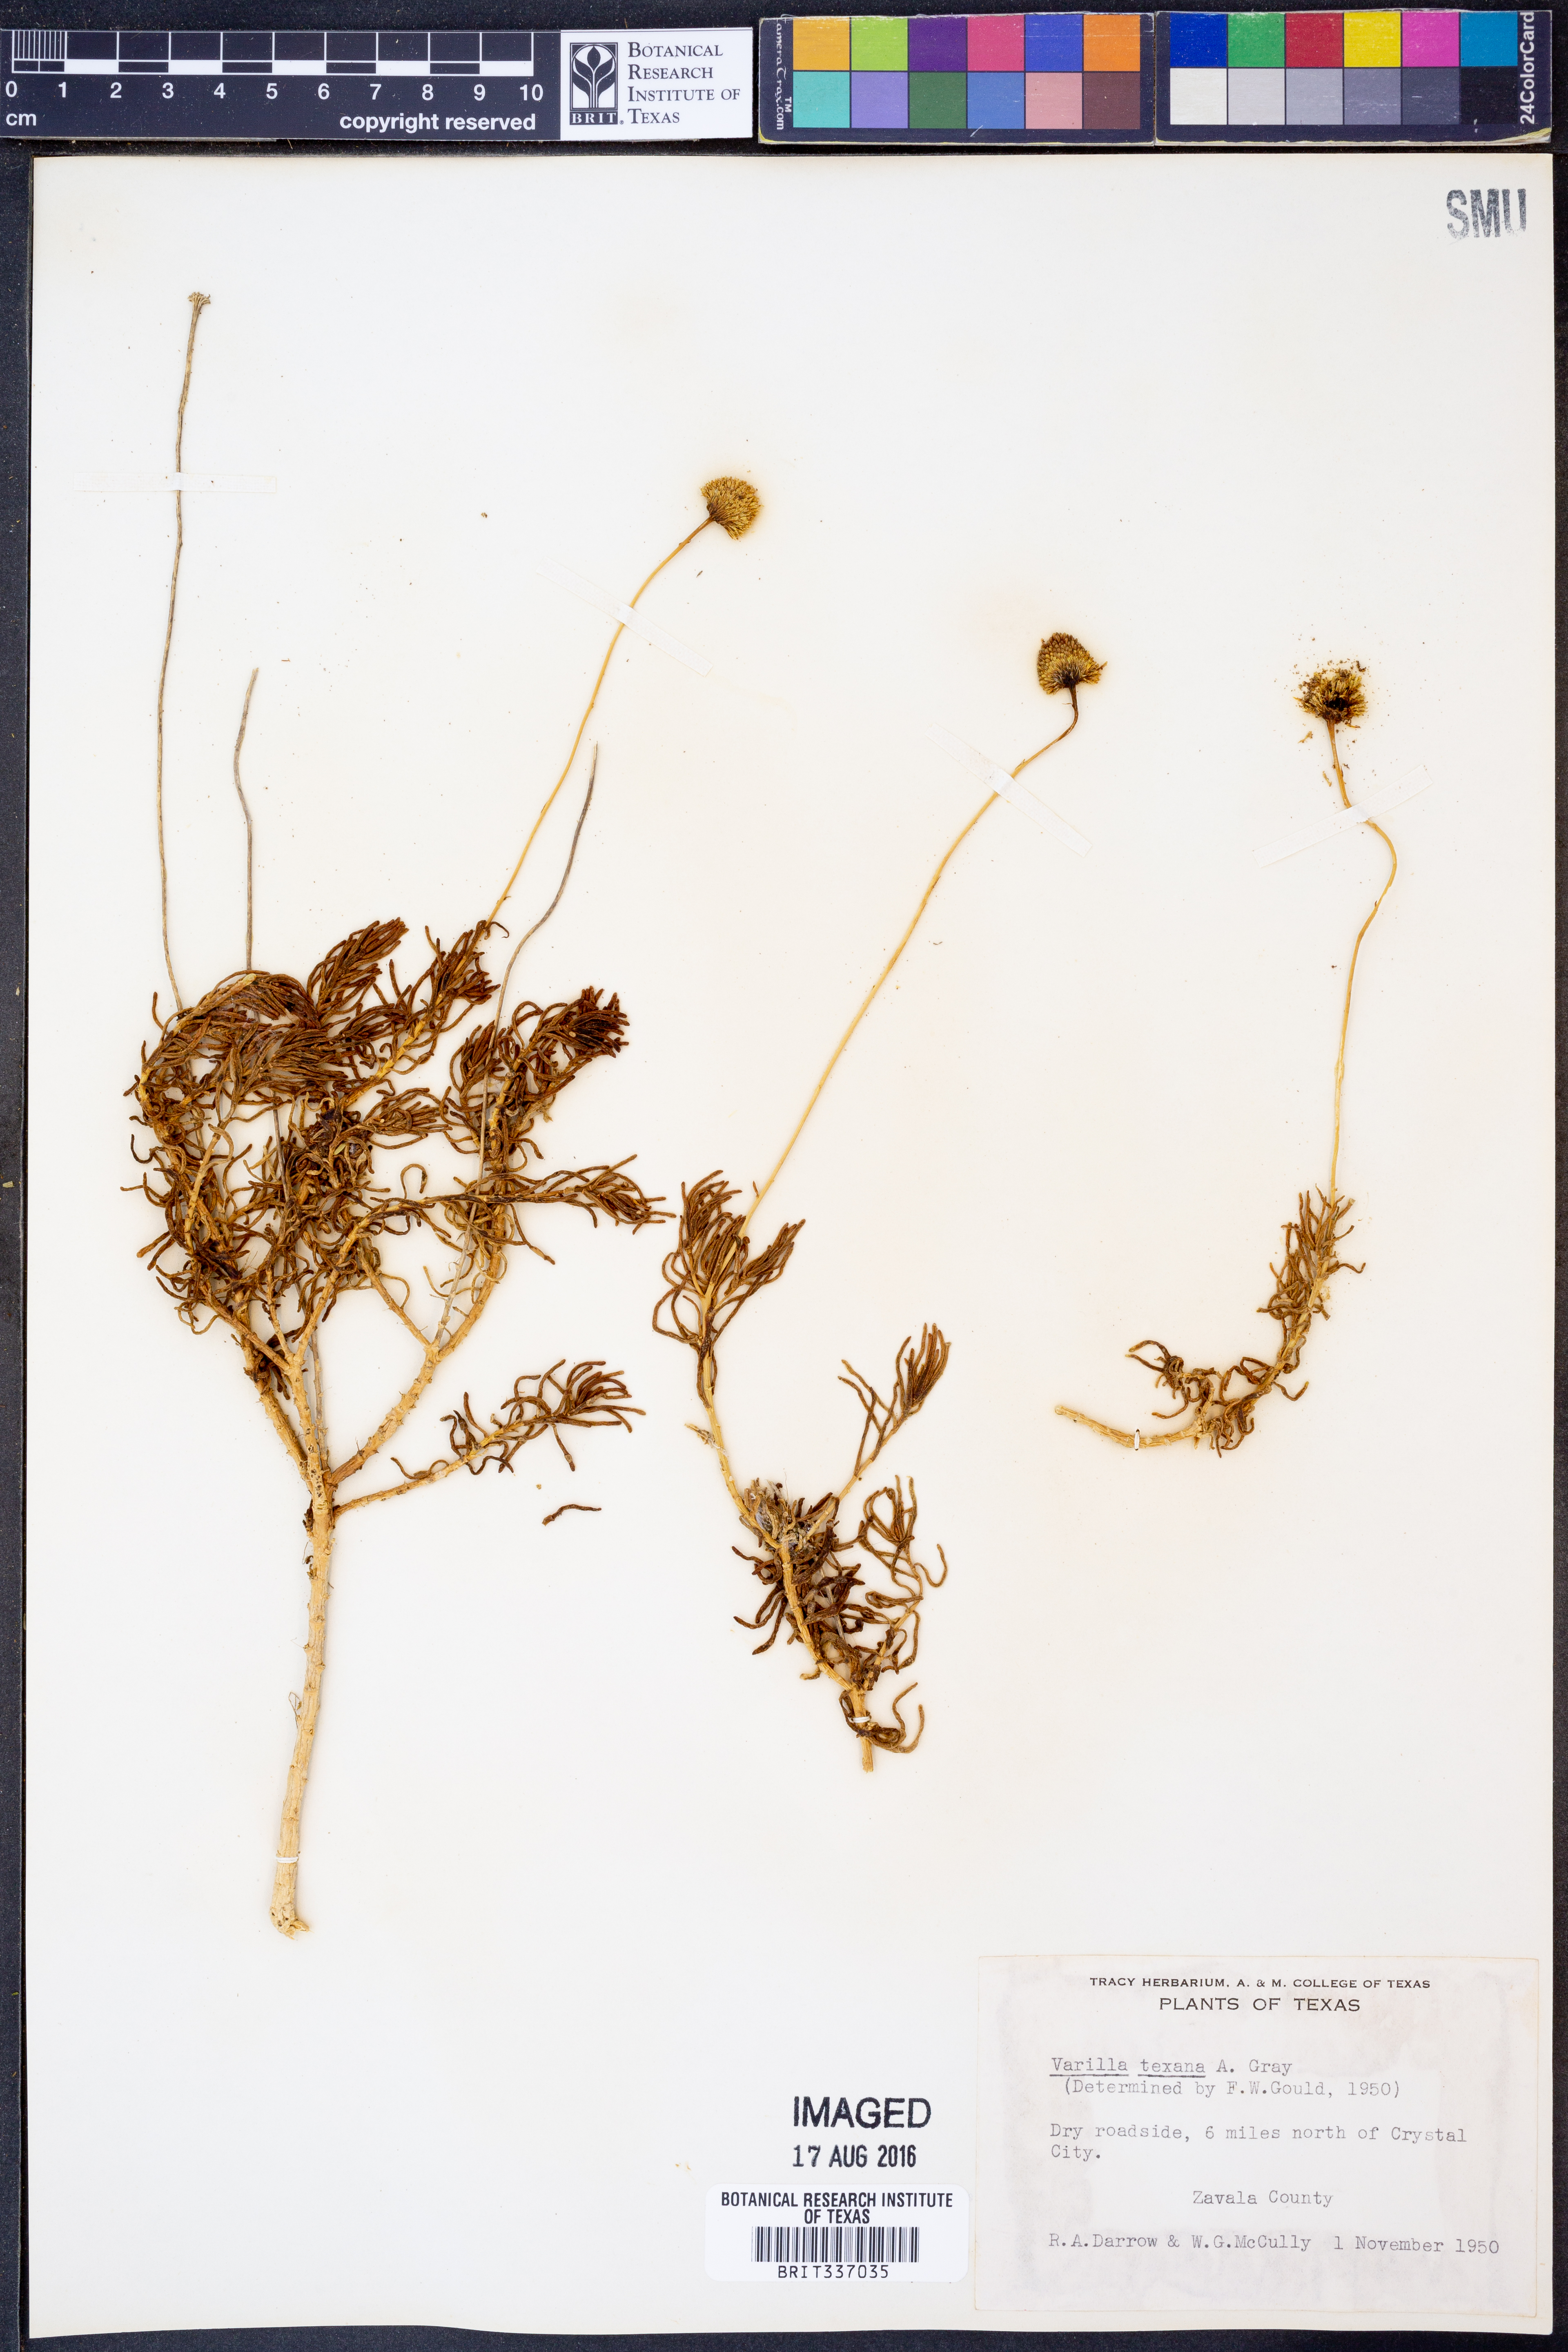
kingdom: Plantae
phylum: Tracheophyta
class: Magnoliopsida
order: Asterales
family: Asteraceae
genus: Varilla
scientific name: Varilla texana
